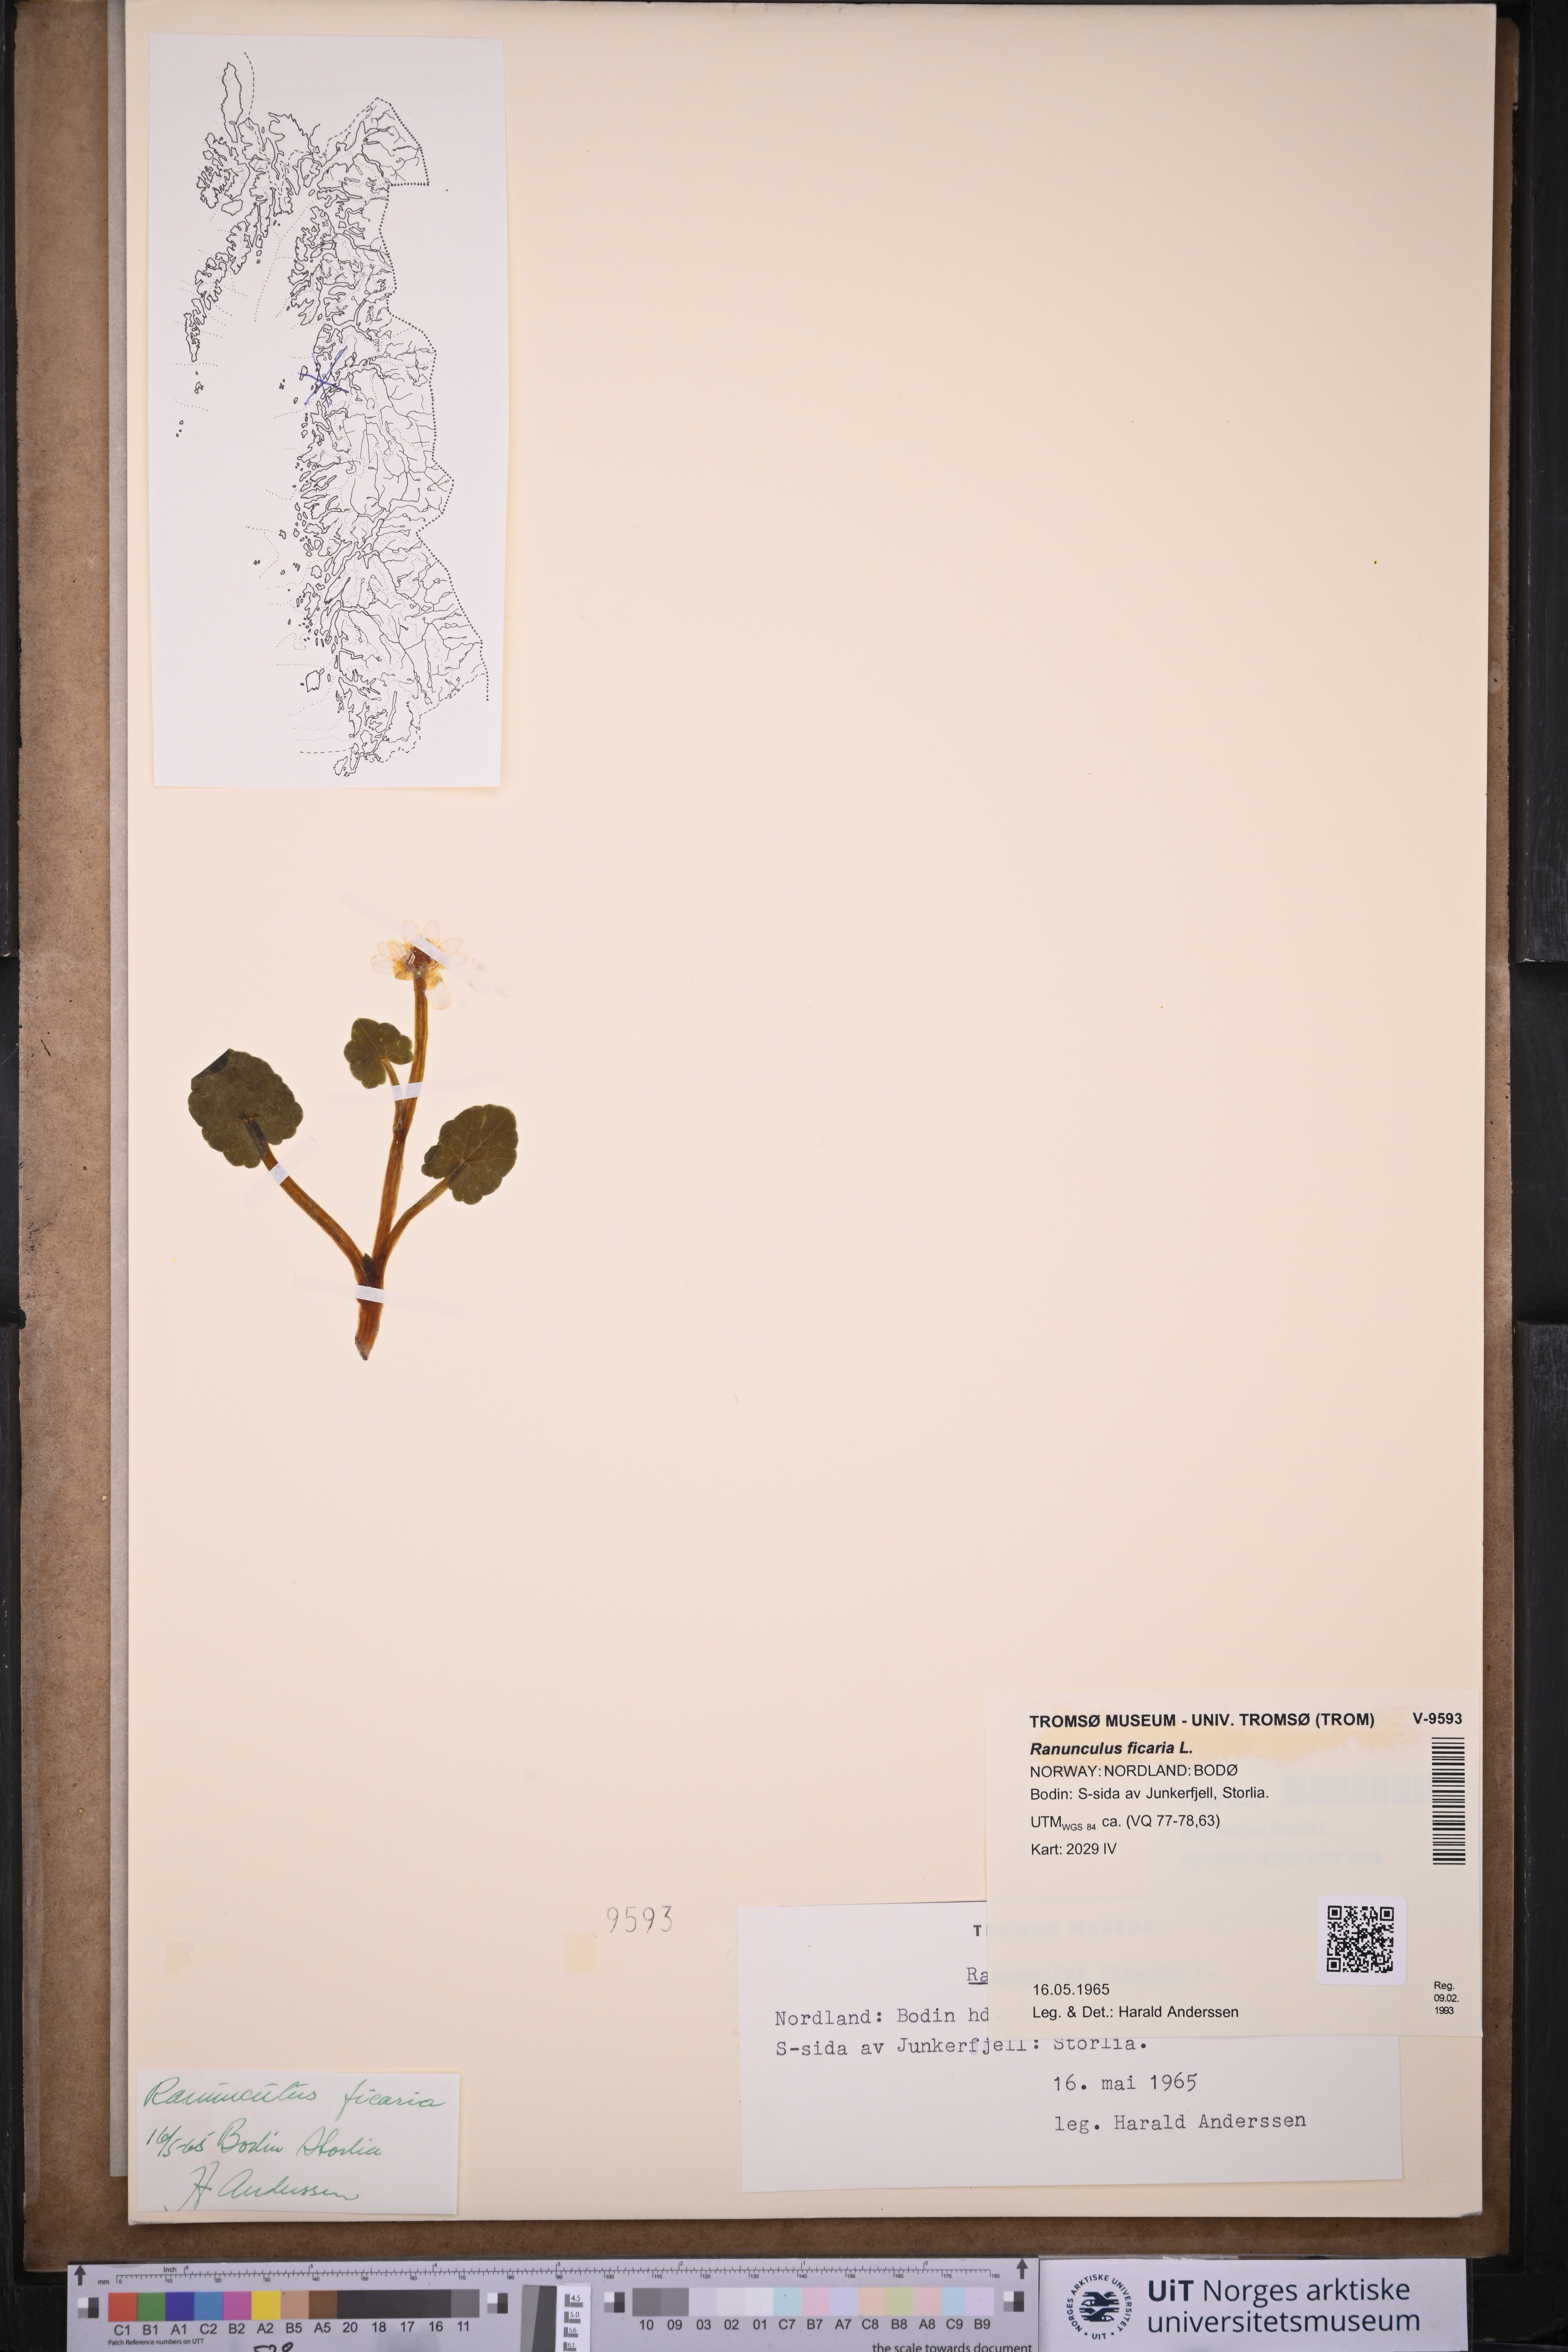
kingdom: Plantae
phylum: Tracheophyta
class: Magnoliopsida
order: Ranunculales
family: Ranunculaceae
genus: Ficaria
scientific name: Ficaria verna
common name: Lesser celandine
